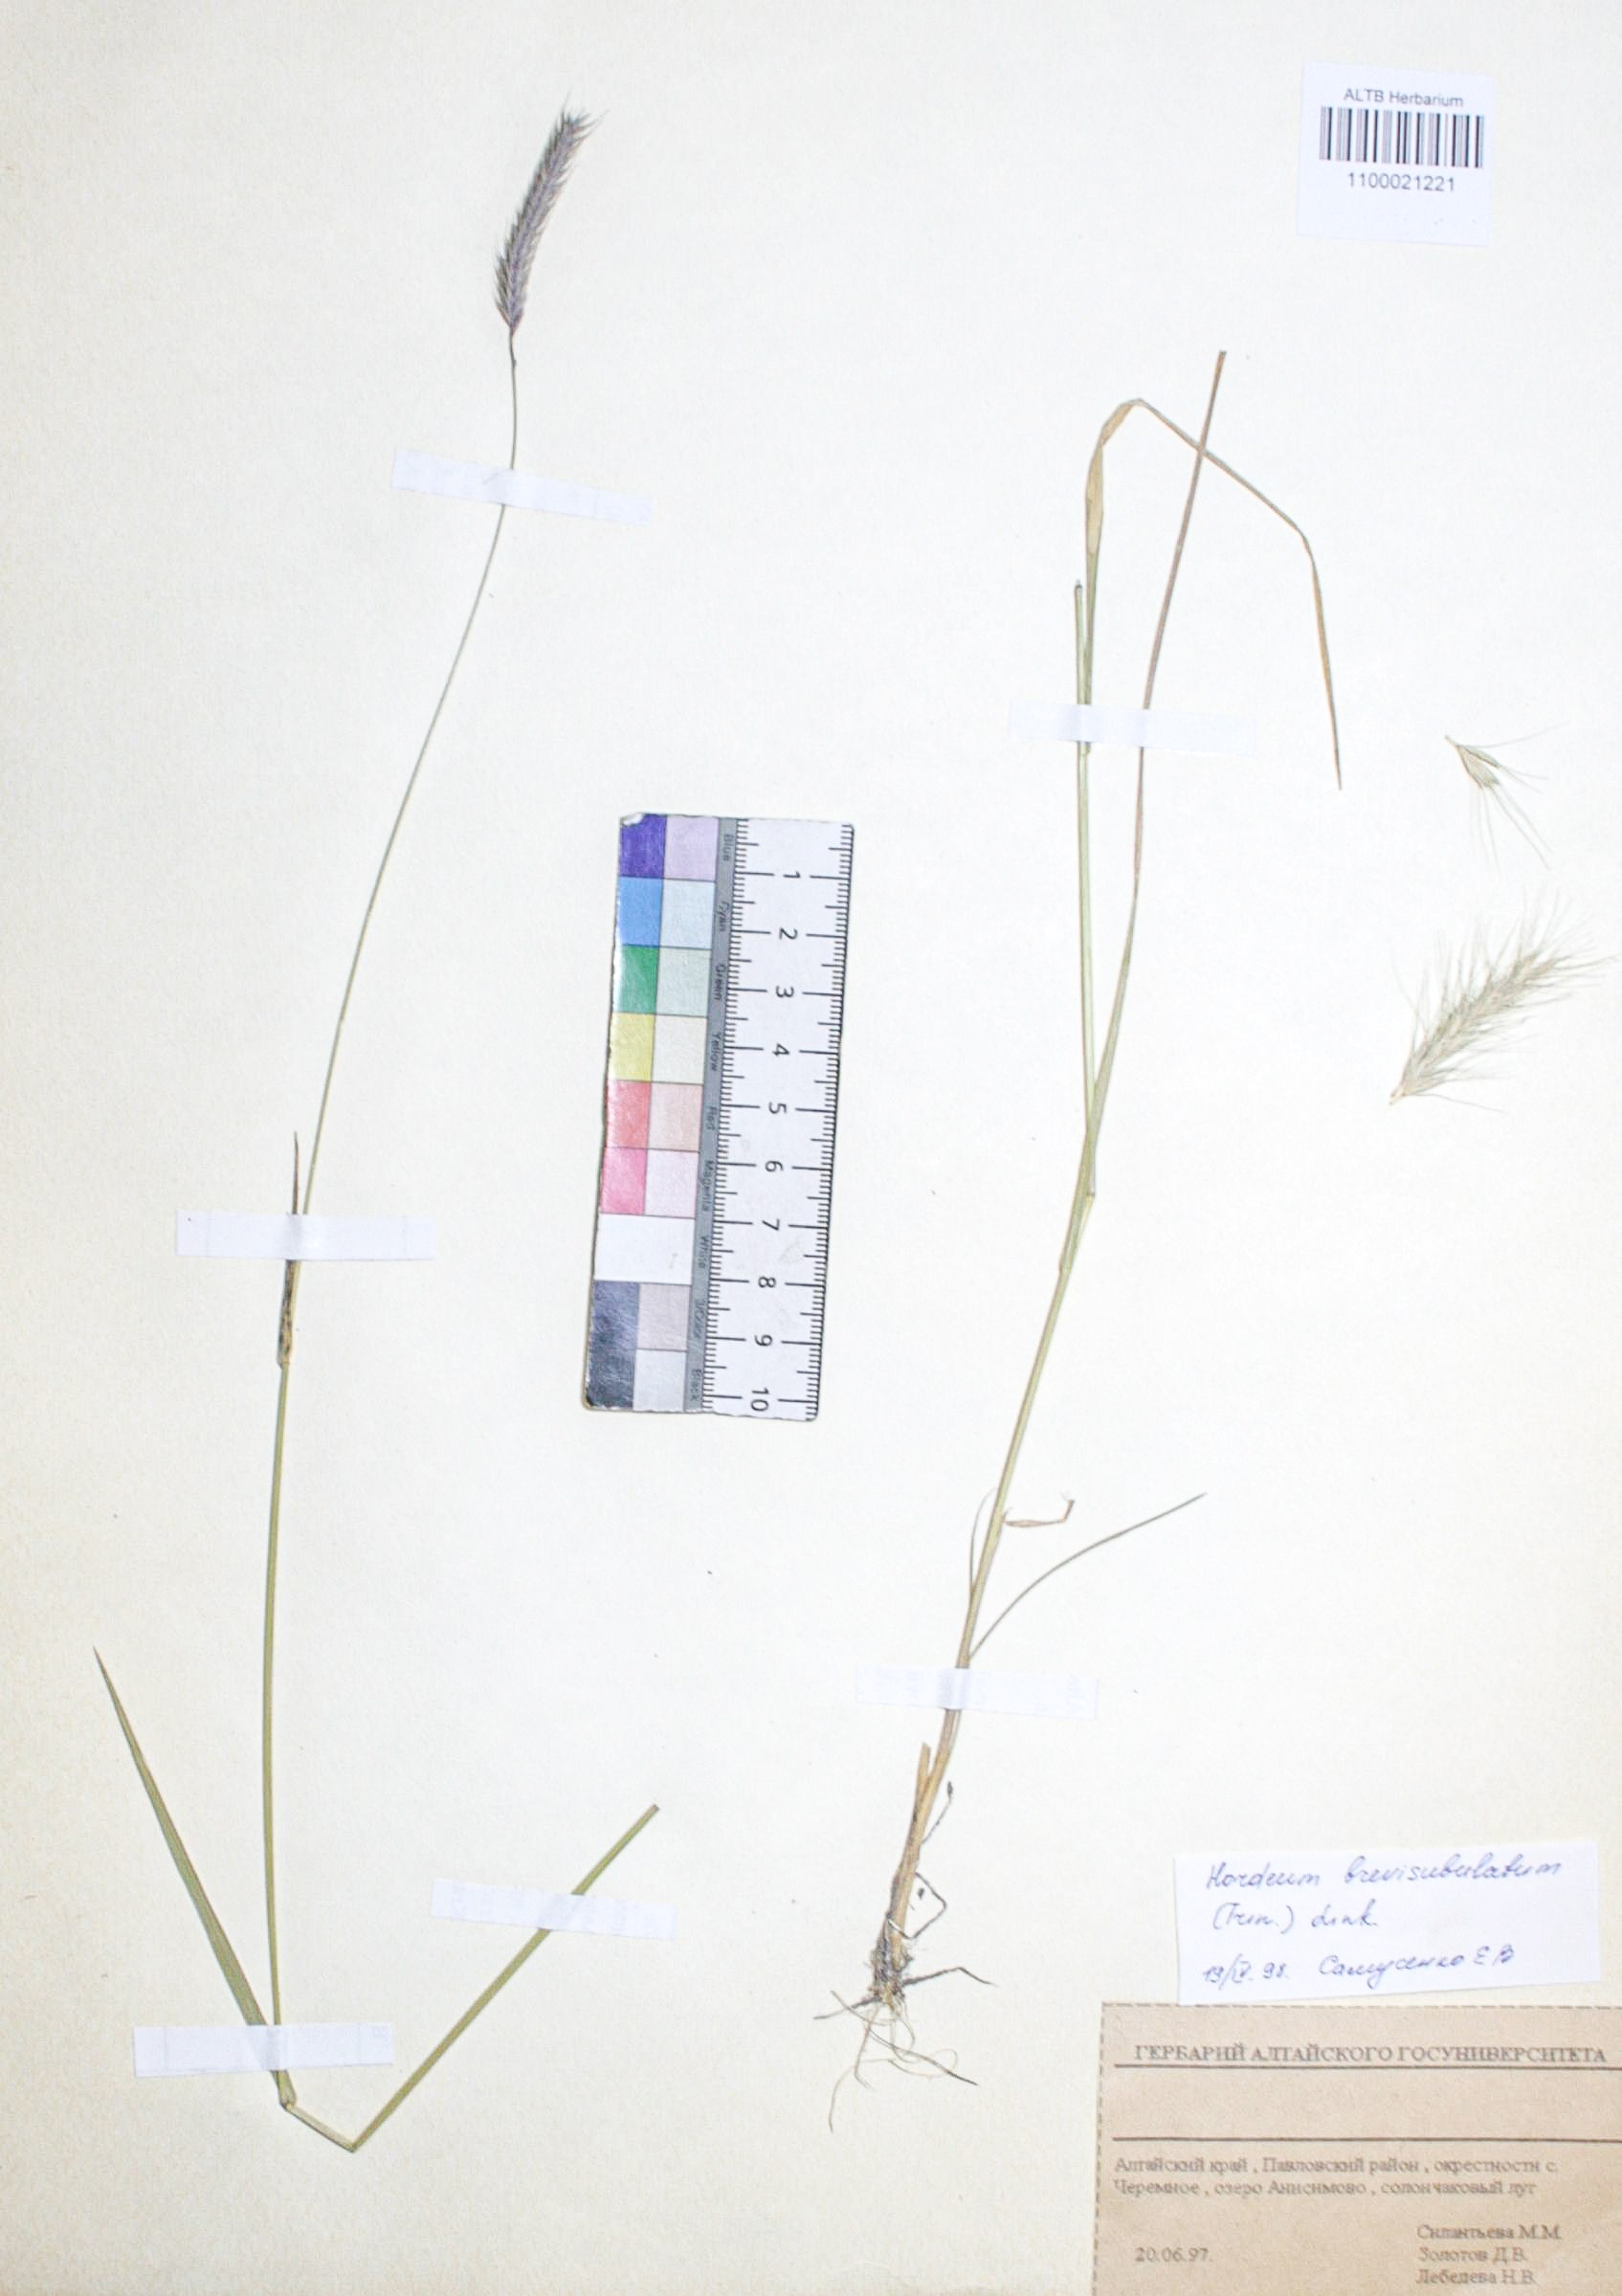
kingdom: Plantae
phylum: Tracheophyta
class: Liliopsida
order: Poales
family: Poaceae
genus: Hordeum
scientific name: Hordeum brevisubulatum
